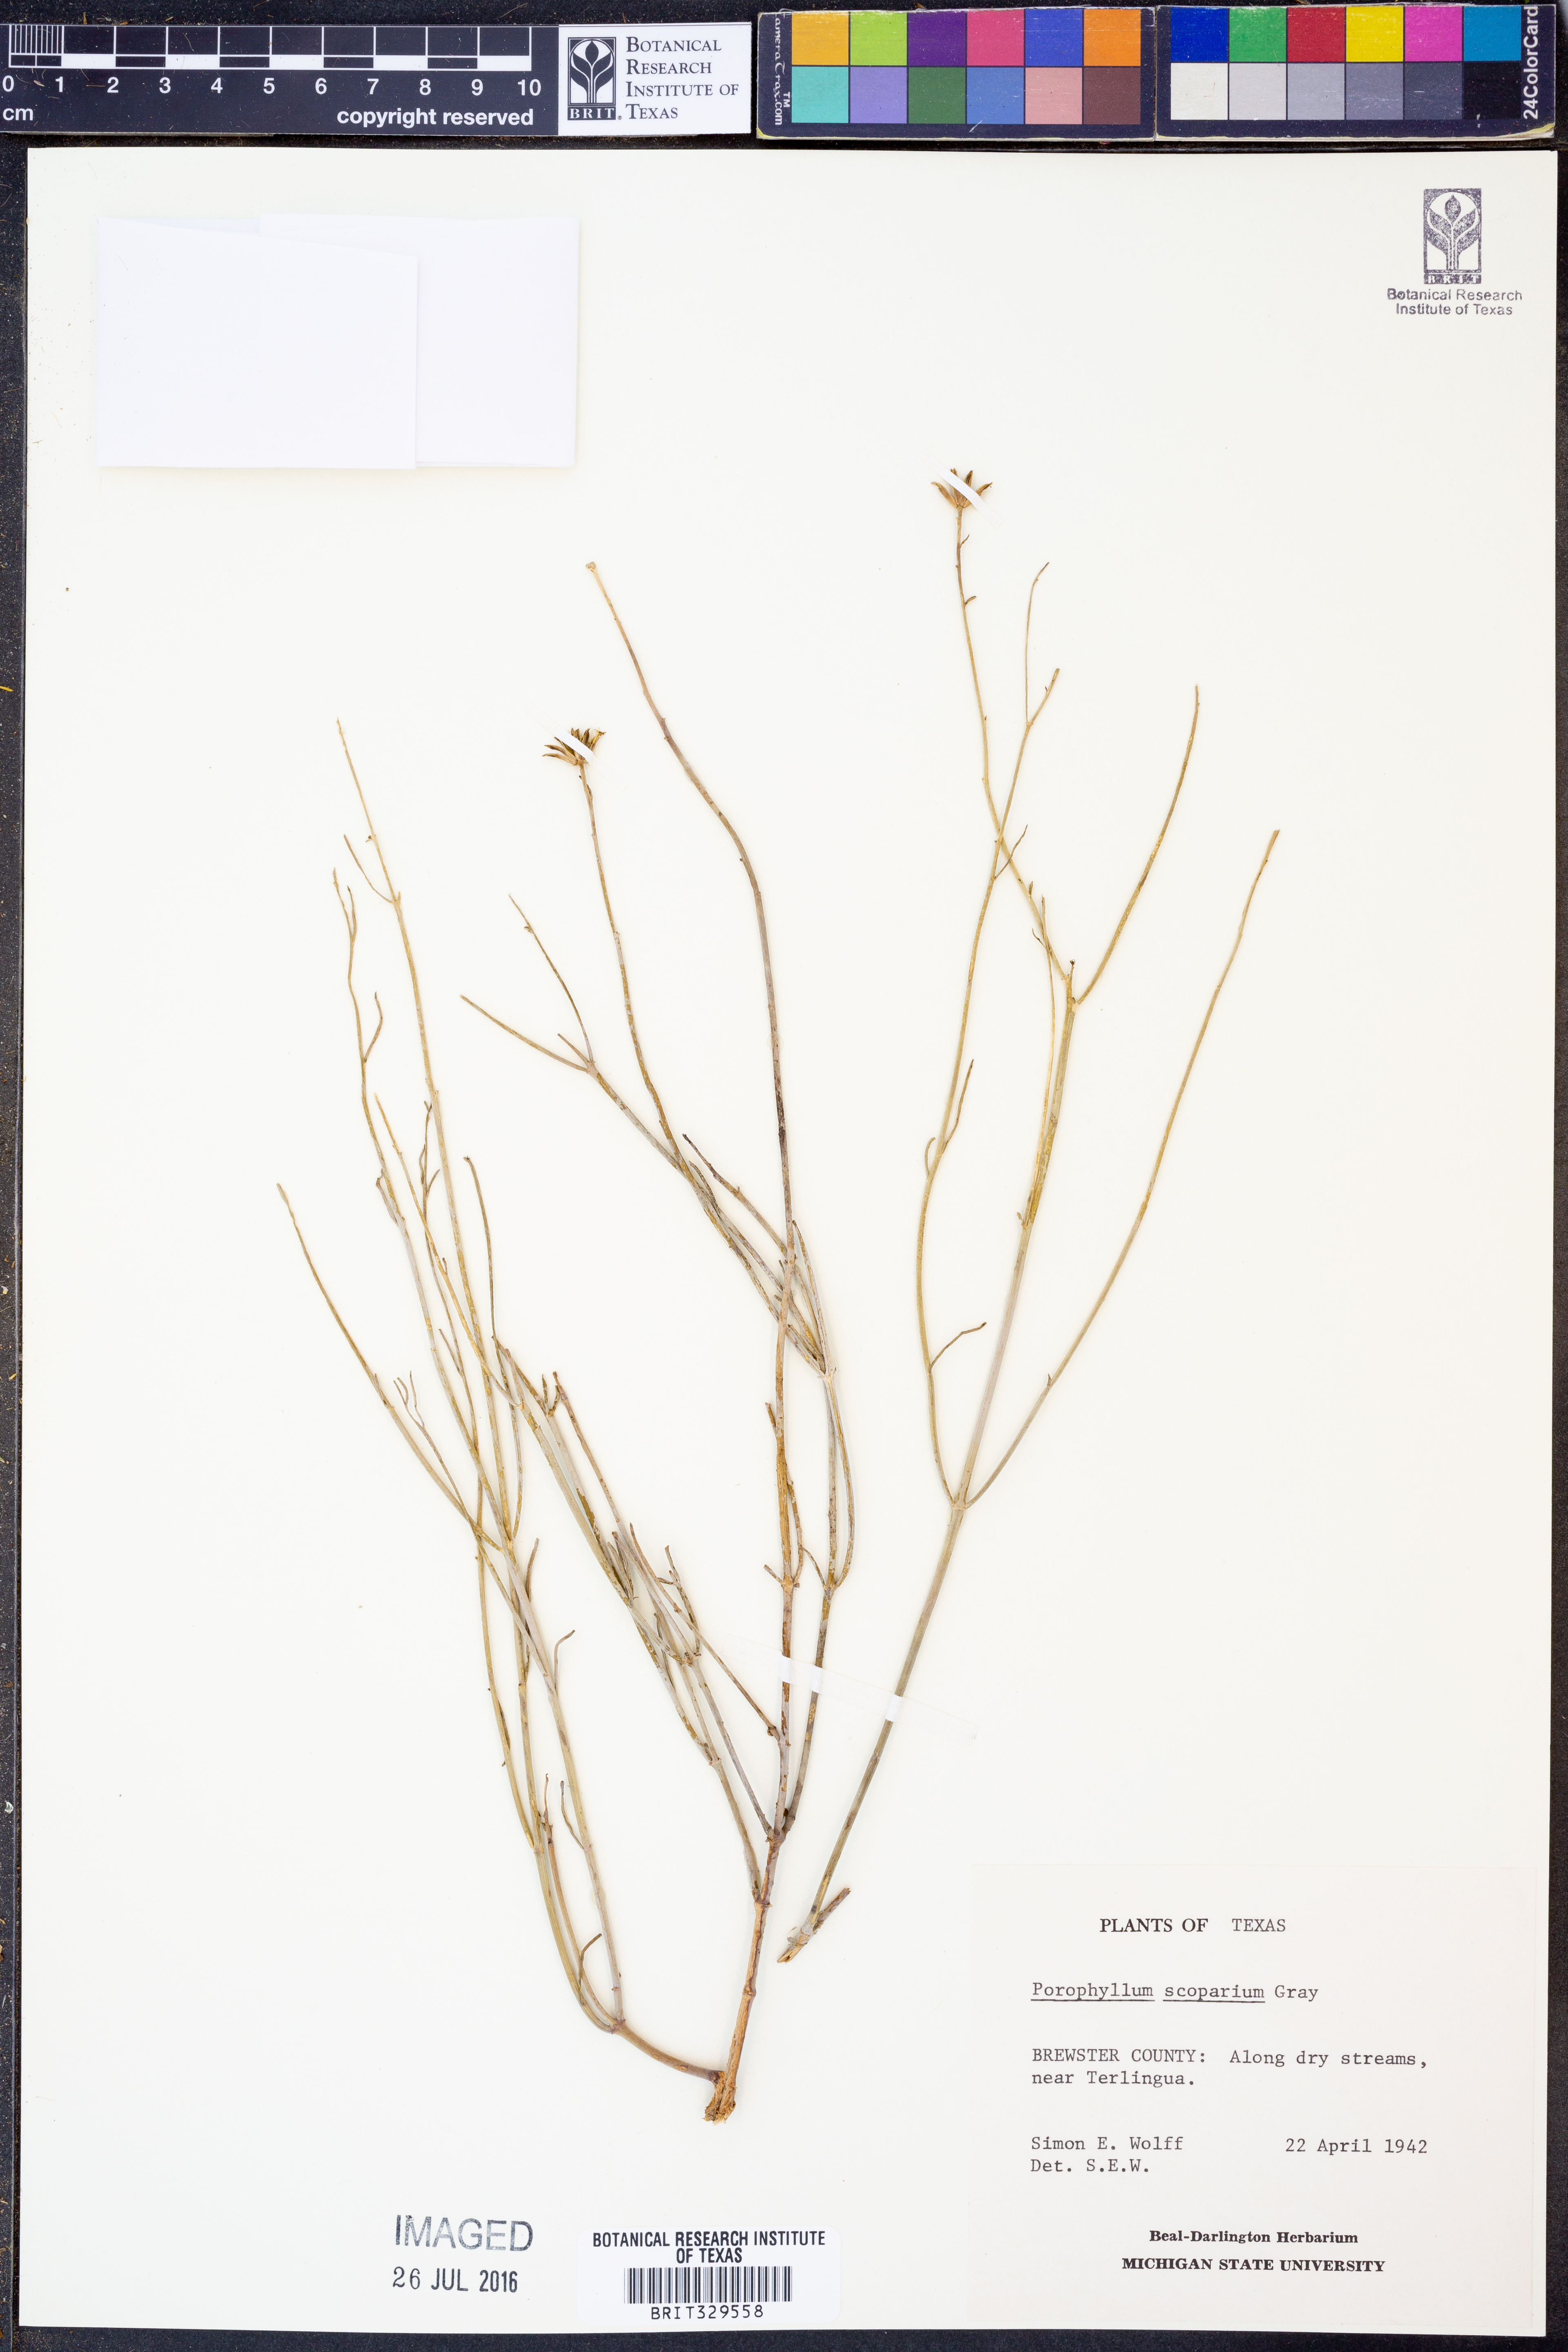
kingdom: Plantae
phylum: Tracheophyta
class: Magnoliopsida
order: Asterales
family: Asteraceae
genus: Porophyllum
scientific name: Porophyllum scoparium
